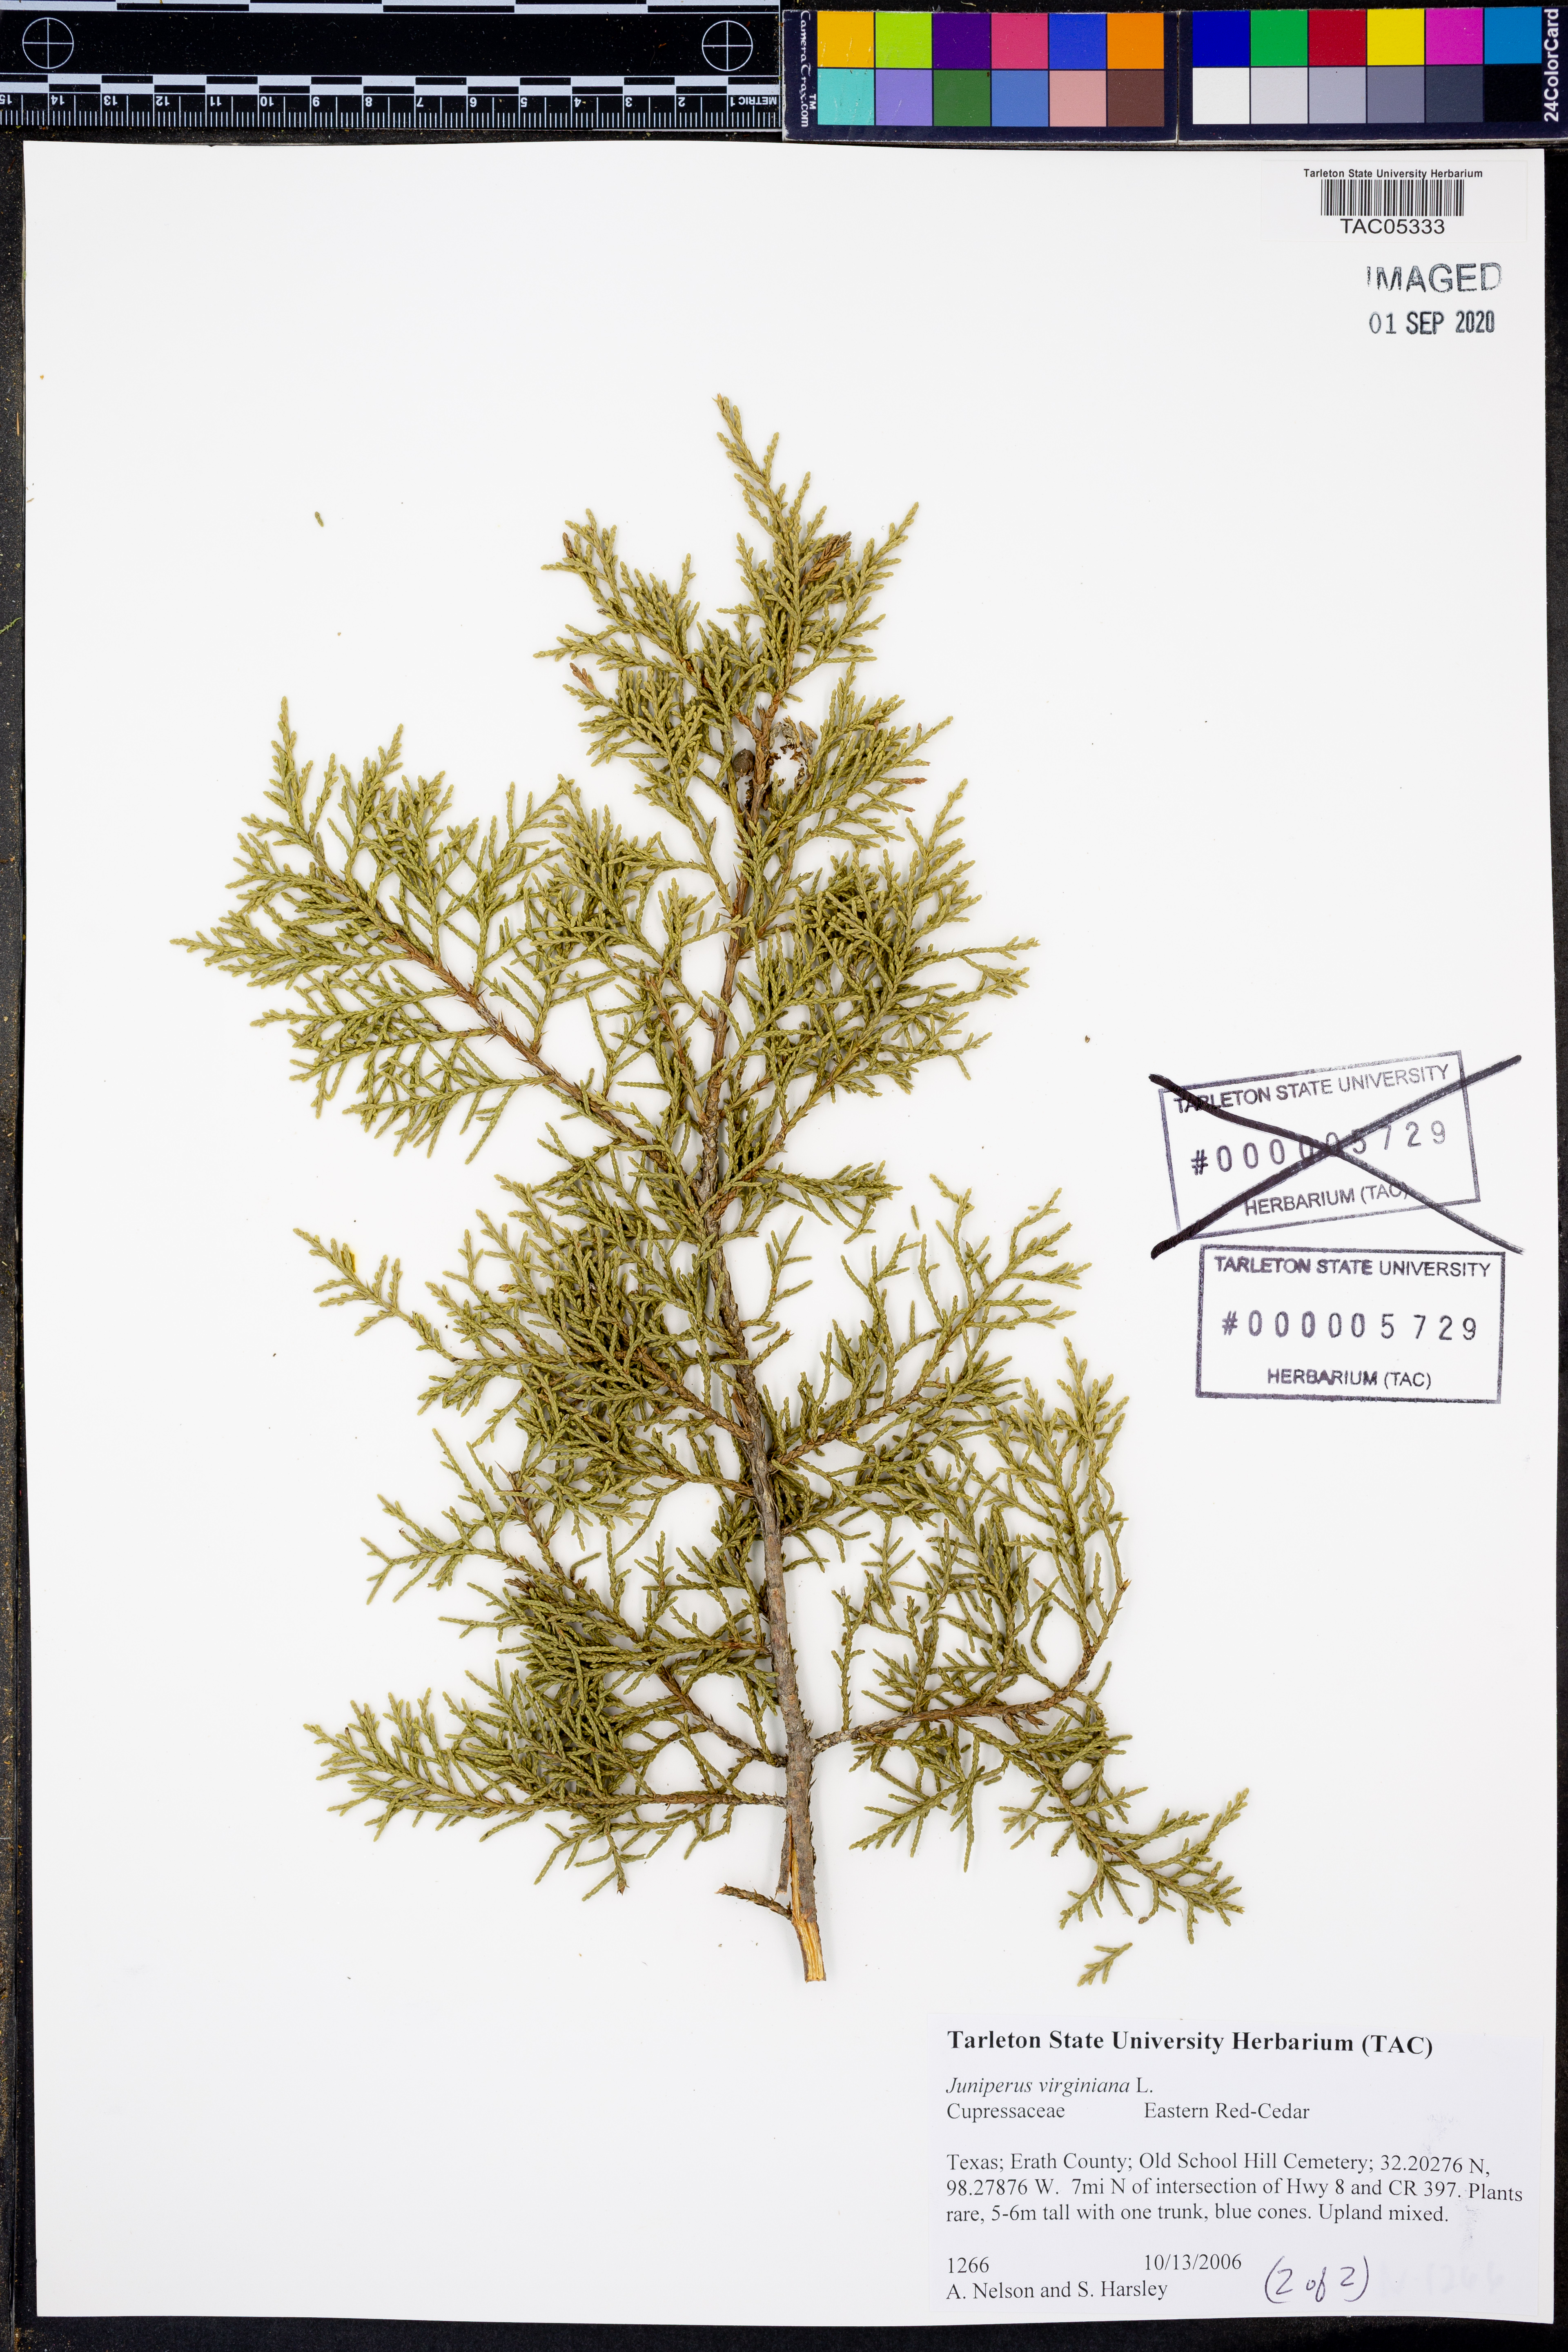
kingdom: Plantae
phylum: Tracheophyta
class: Pinopsida
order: Pinales
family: Cupressaceae
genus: Juniperus
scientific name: Juniperus virginiana
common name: Red juniper
